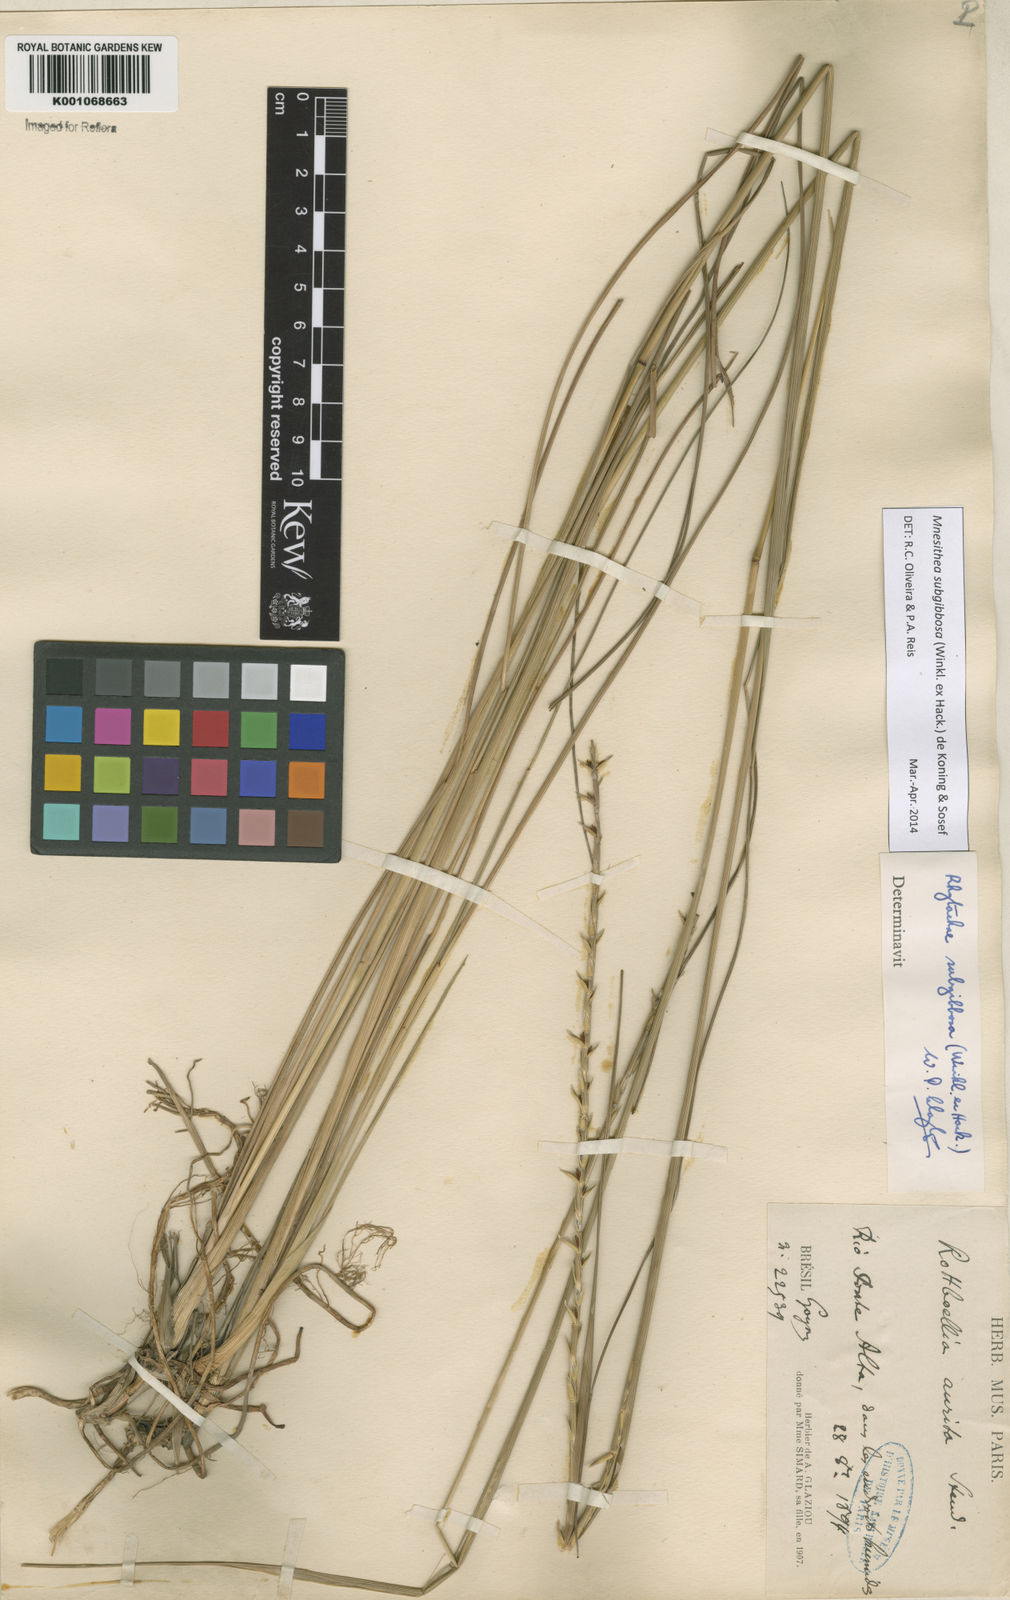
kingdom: Plantae
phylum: Tracheophyta
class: Liliopsida
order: Poales
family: Poaceae
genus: Rhytachne
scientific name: Rhytachne subgibbosa
